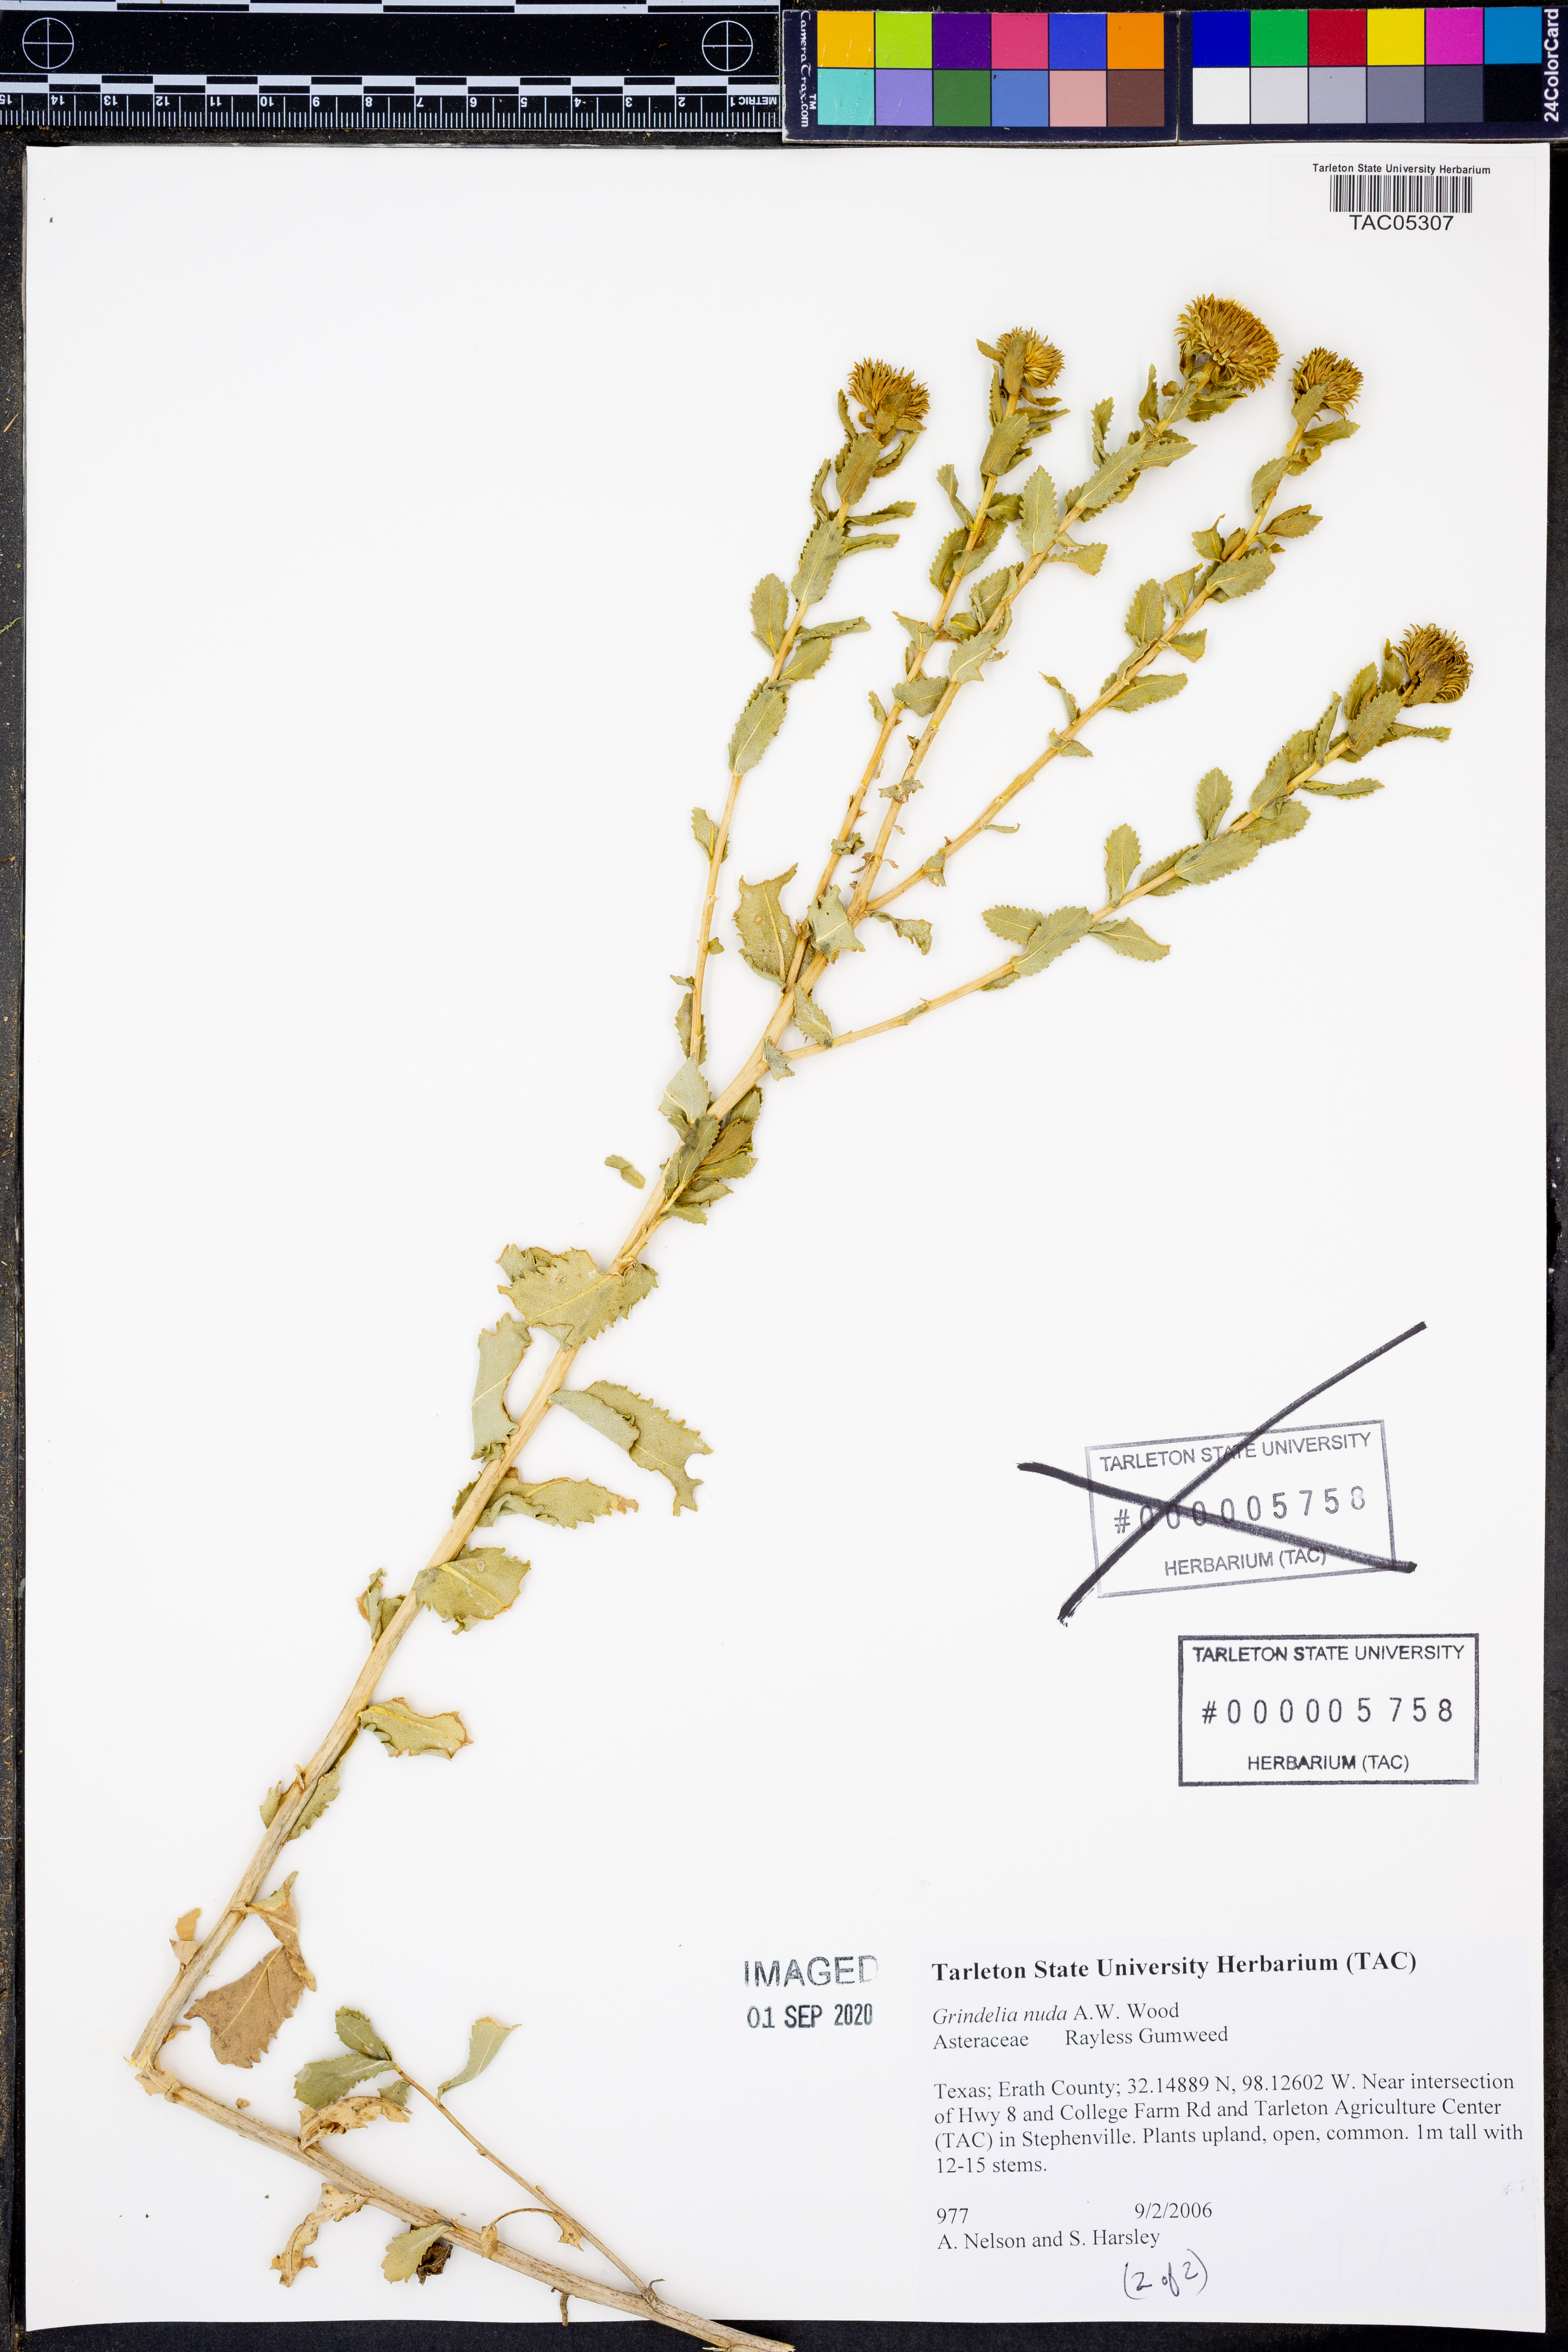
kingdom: Plantae
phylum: Tracheophyta
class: Magnoliopsida
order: Asterales
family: Asteraceae
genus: Grindelia
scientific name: Grindelia nuda
